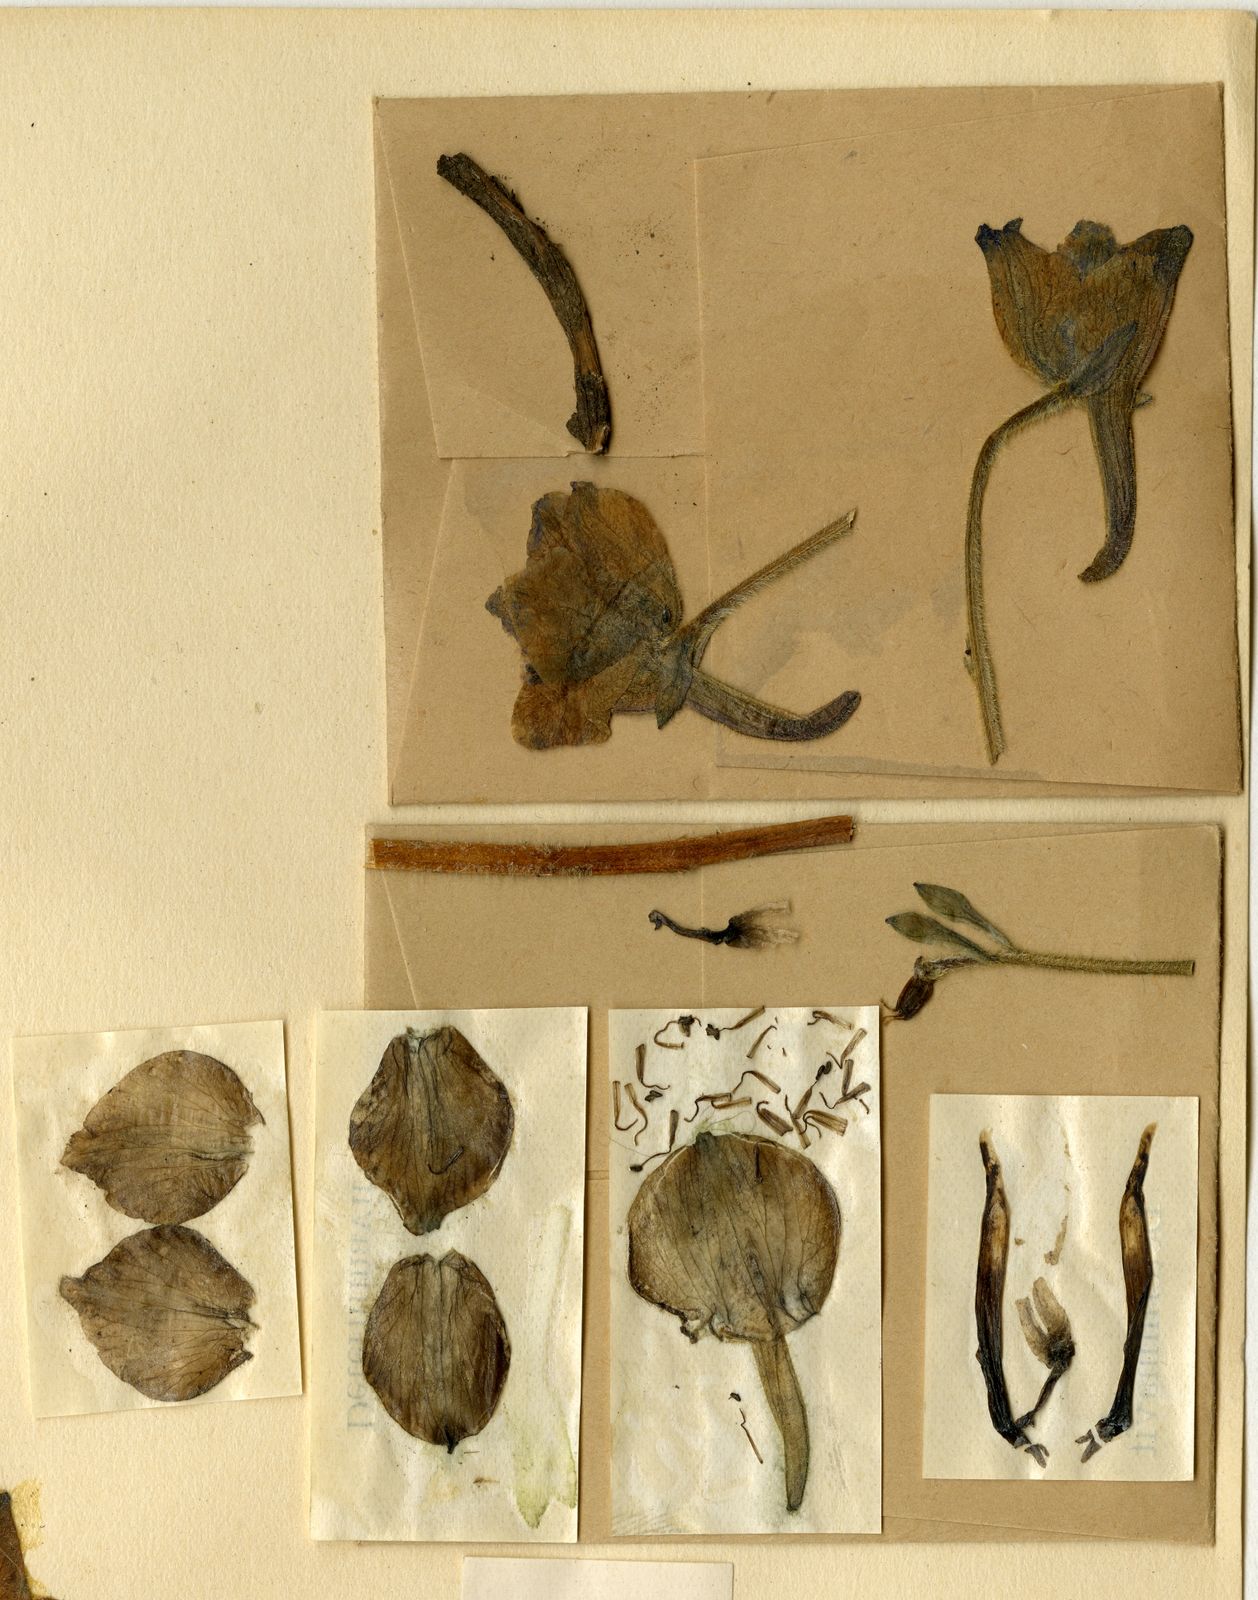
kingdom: Plantae
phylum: Tracheophyta
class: Magnoliopsida
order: Ranunculales
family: Ranunculaceae
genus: Delphinium
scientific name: Delphinium wardii
